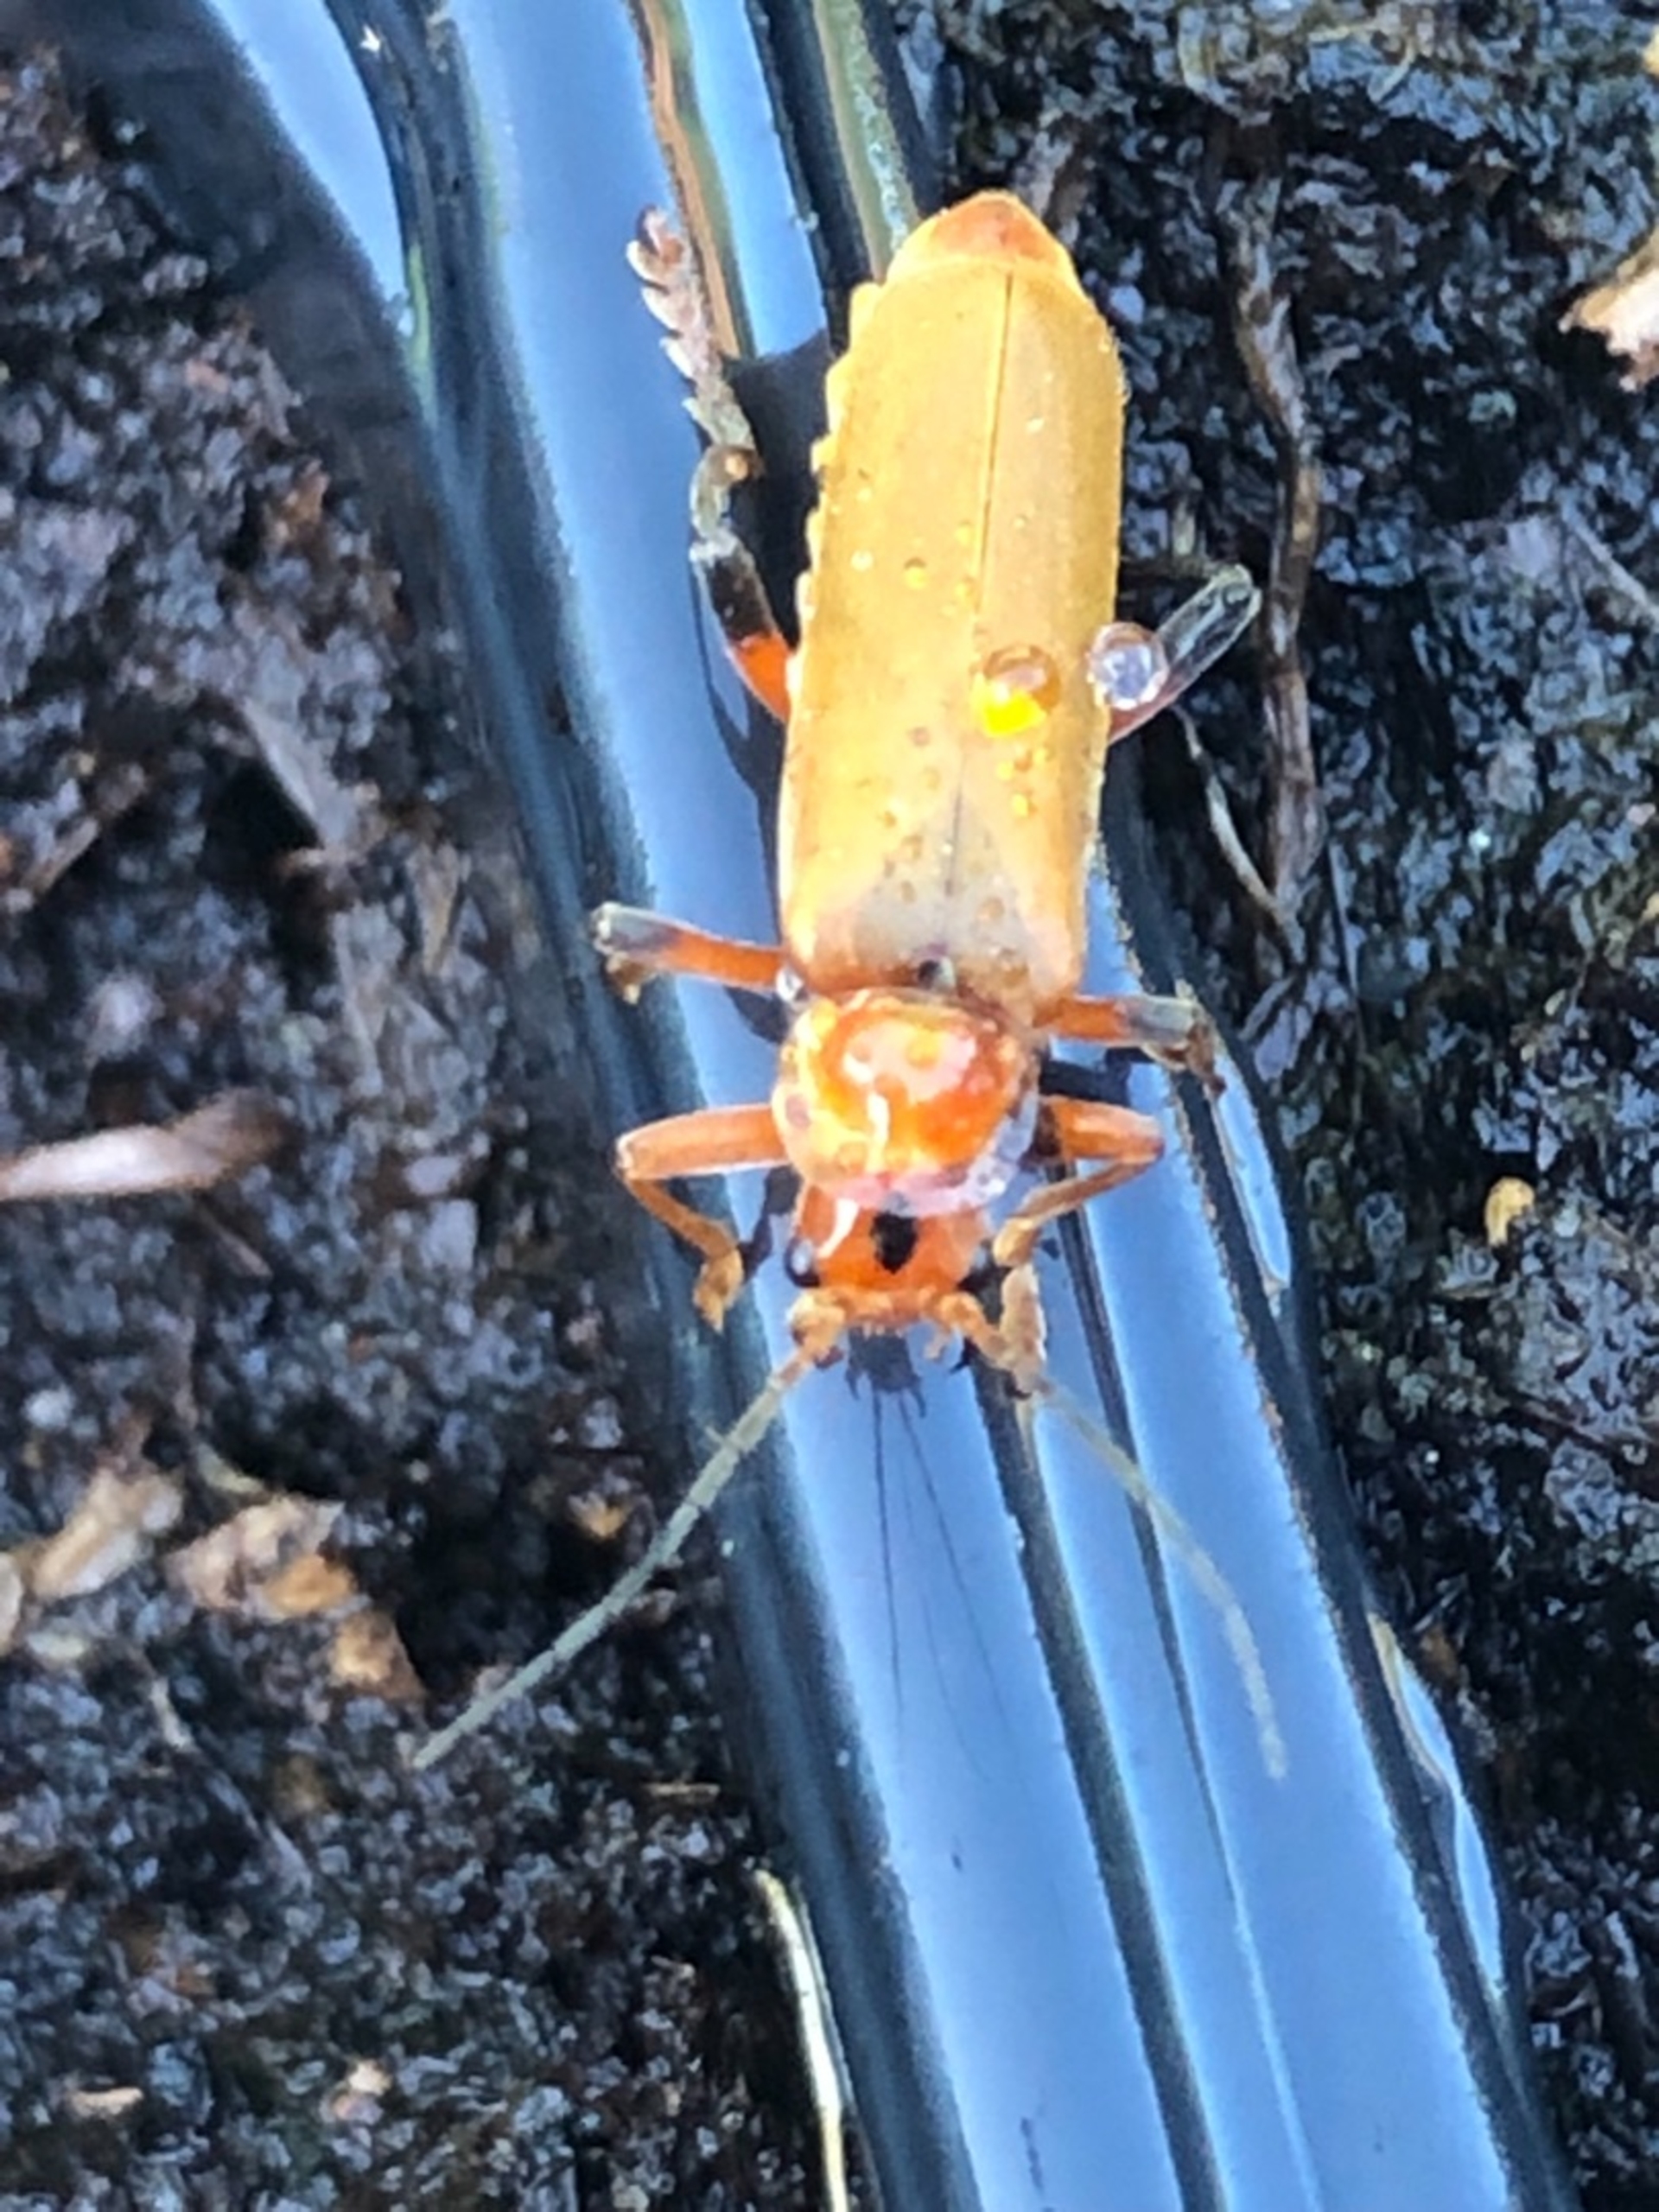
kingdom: Animalia
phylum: Arthropoda
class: Insecta
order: Coleoptera
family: Cantharidae
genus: Cantharis
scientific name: Cantharis livida
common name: Gul blødvinge
